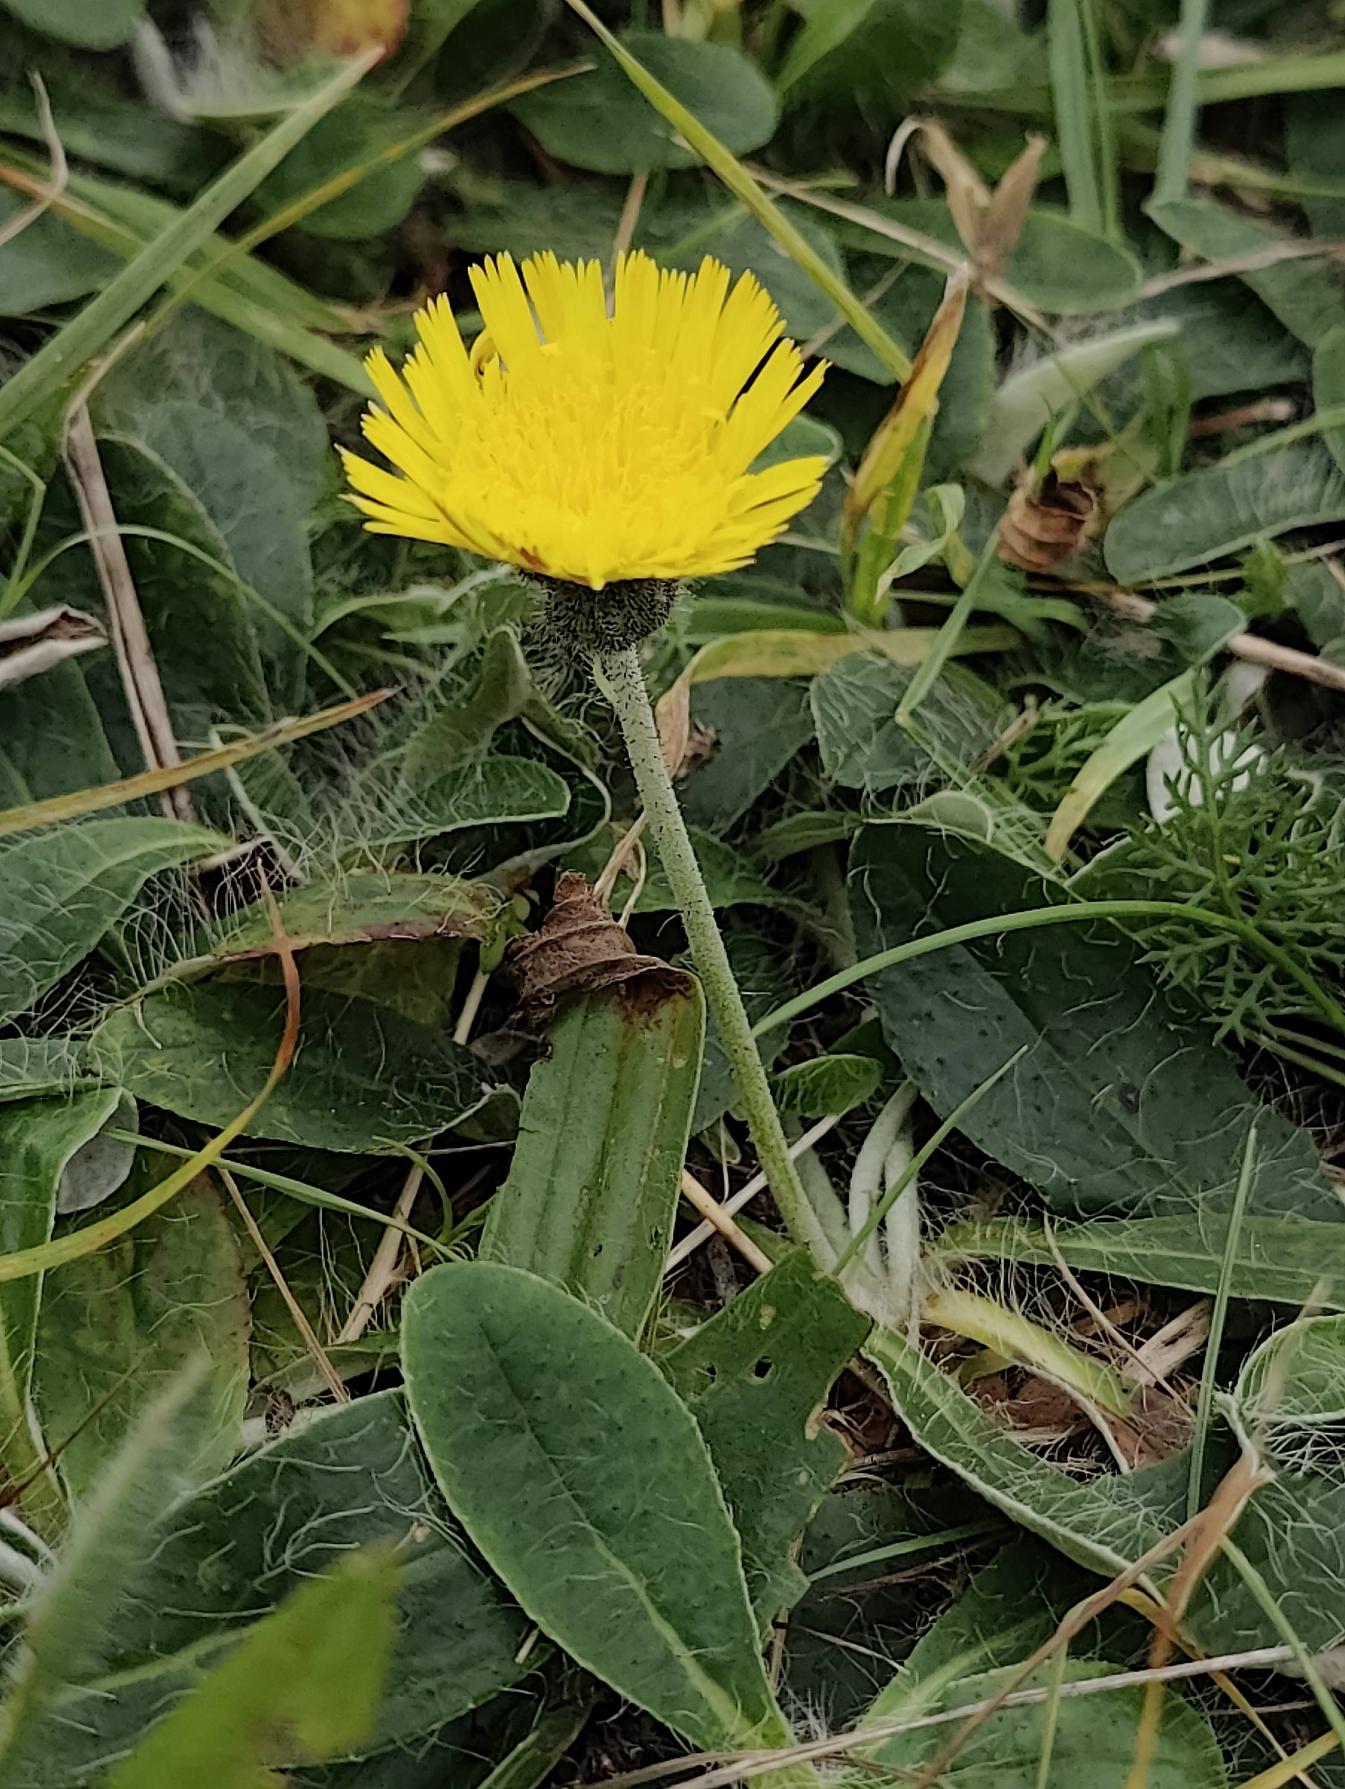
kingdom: Plantae
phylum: Tracheophyta
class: Magnoliopsida
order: Asterales
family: Asteraceae
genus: Pilosella
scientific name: Pilosella officinarum
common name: Håret høgeurt
